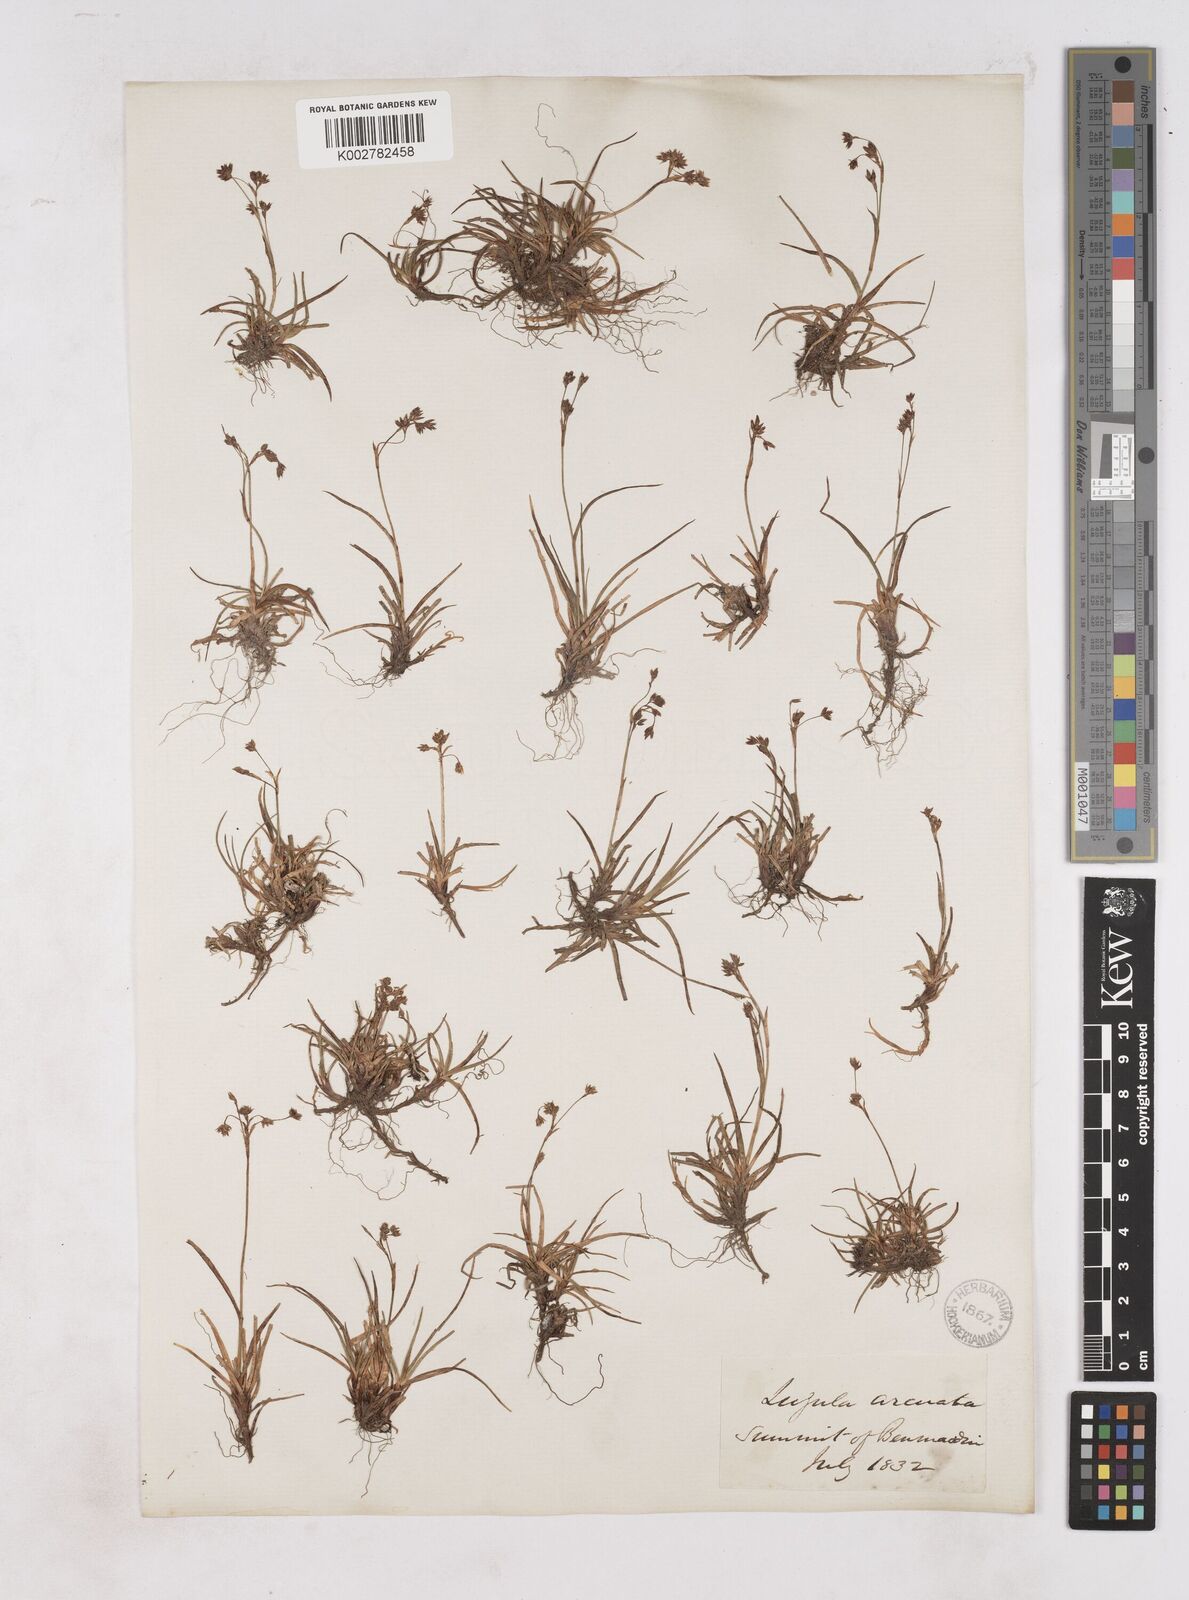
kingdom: Plantae
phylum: Tracheophyta
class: Liliopsida
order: Poales
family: Juncaceae
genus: Luzula
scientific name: Luzula arcuata
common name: Curved wood-rush
